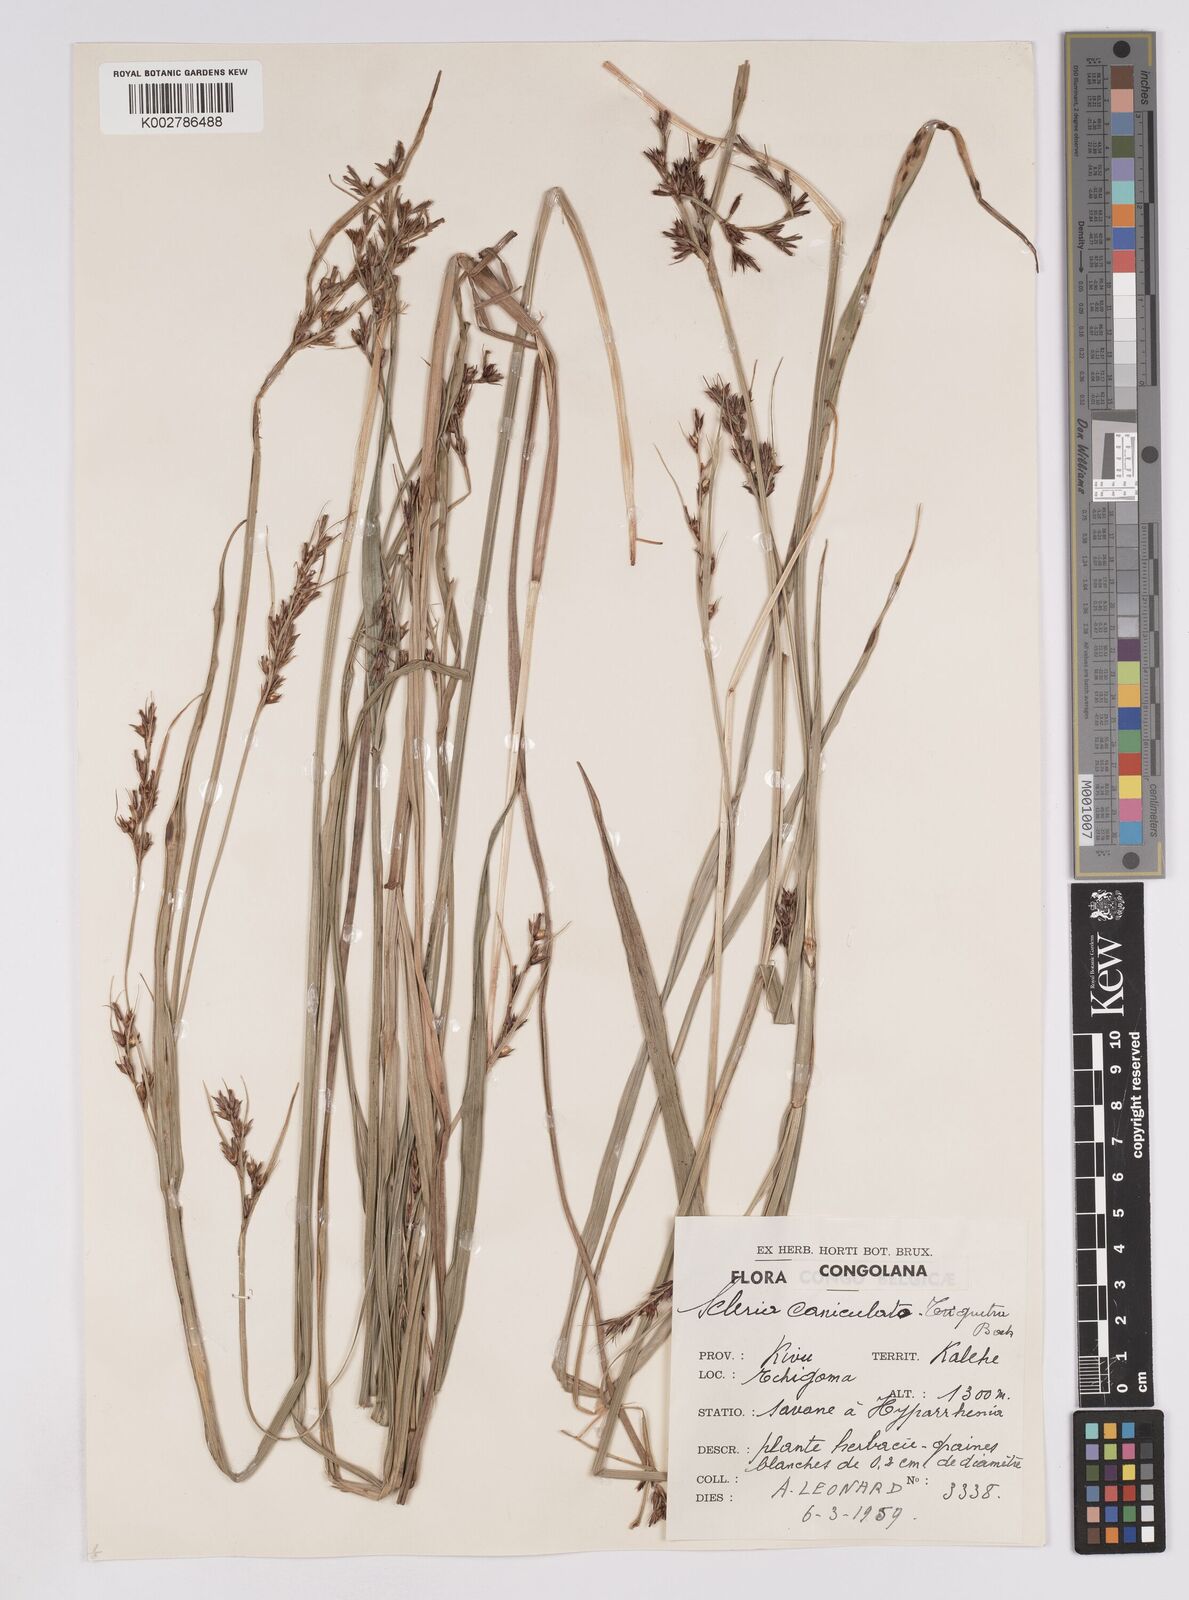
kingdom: Plantae
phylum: Tracheophyta
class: Liliopsida
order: Poales
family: Cyperaceae
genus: Scleria
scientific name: Scleria lagoensis
